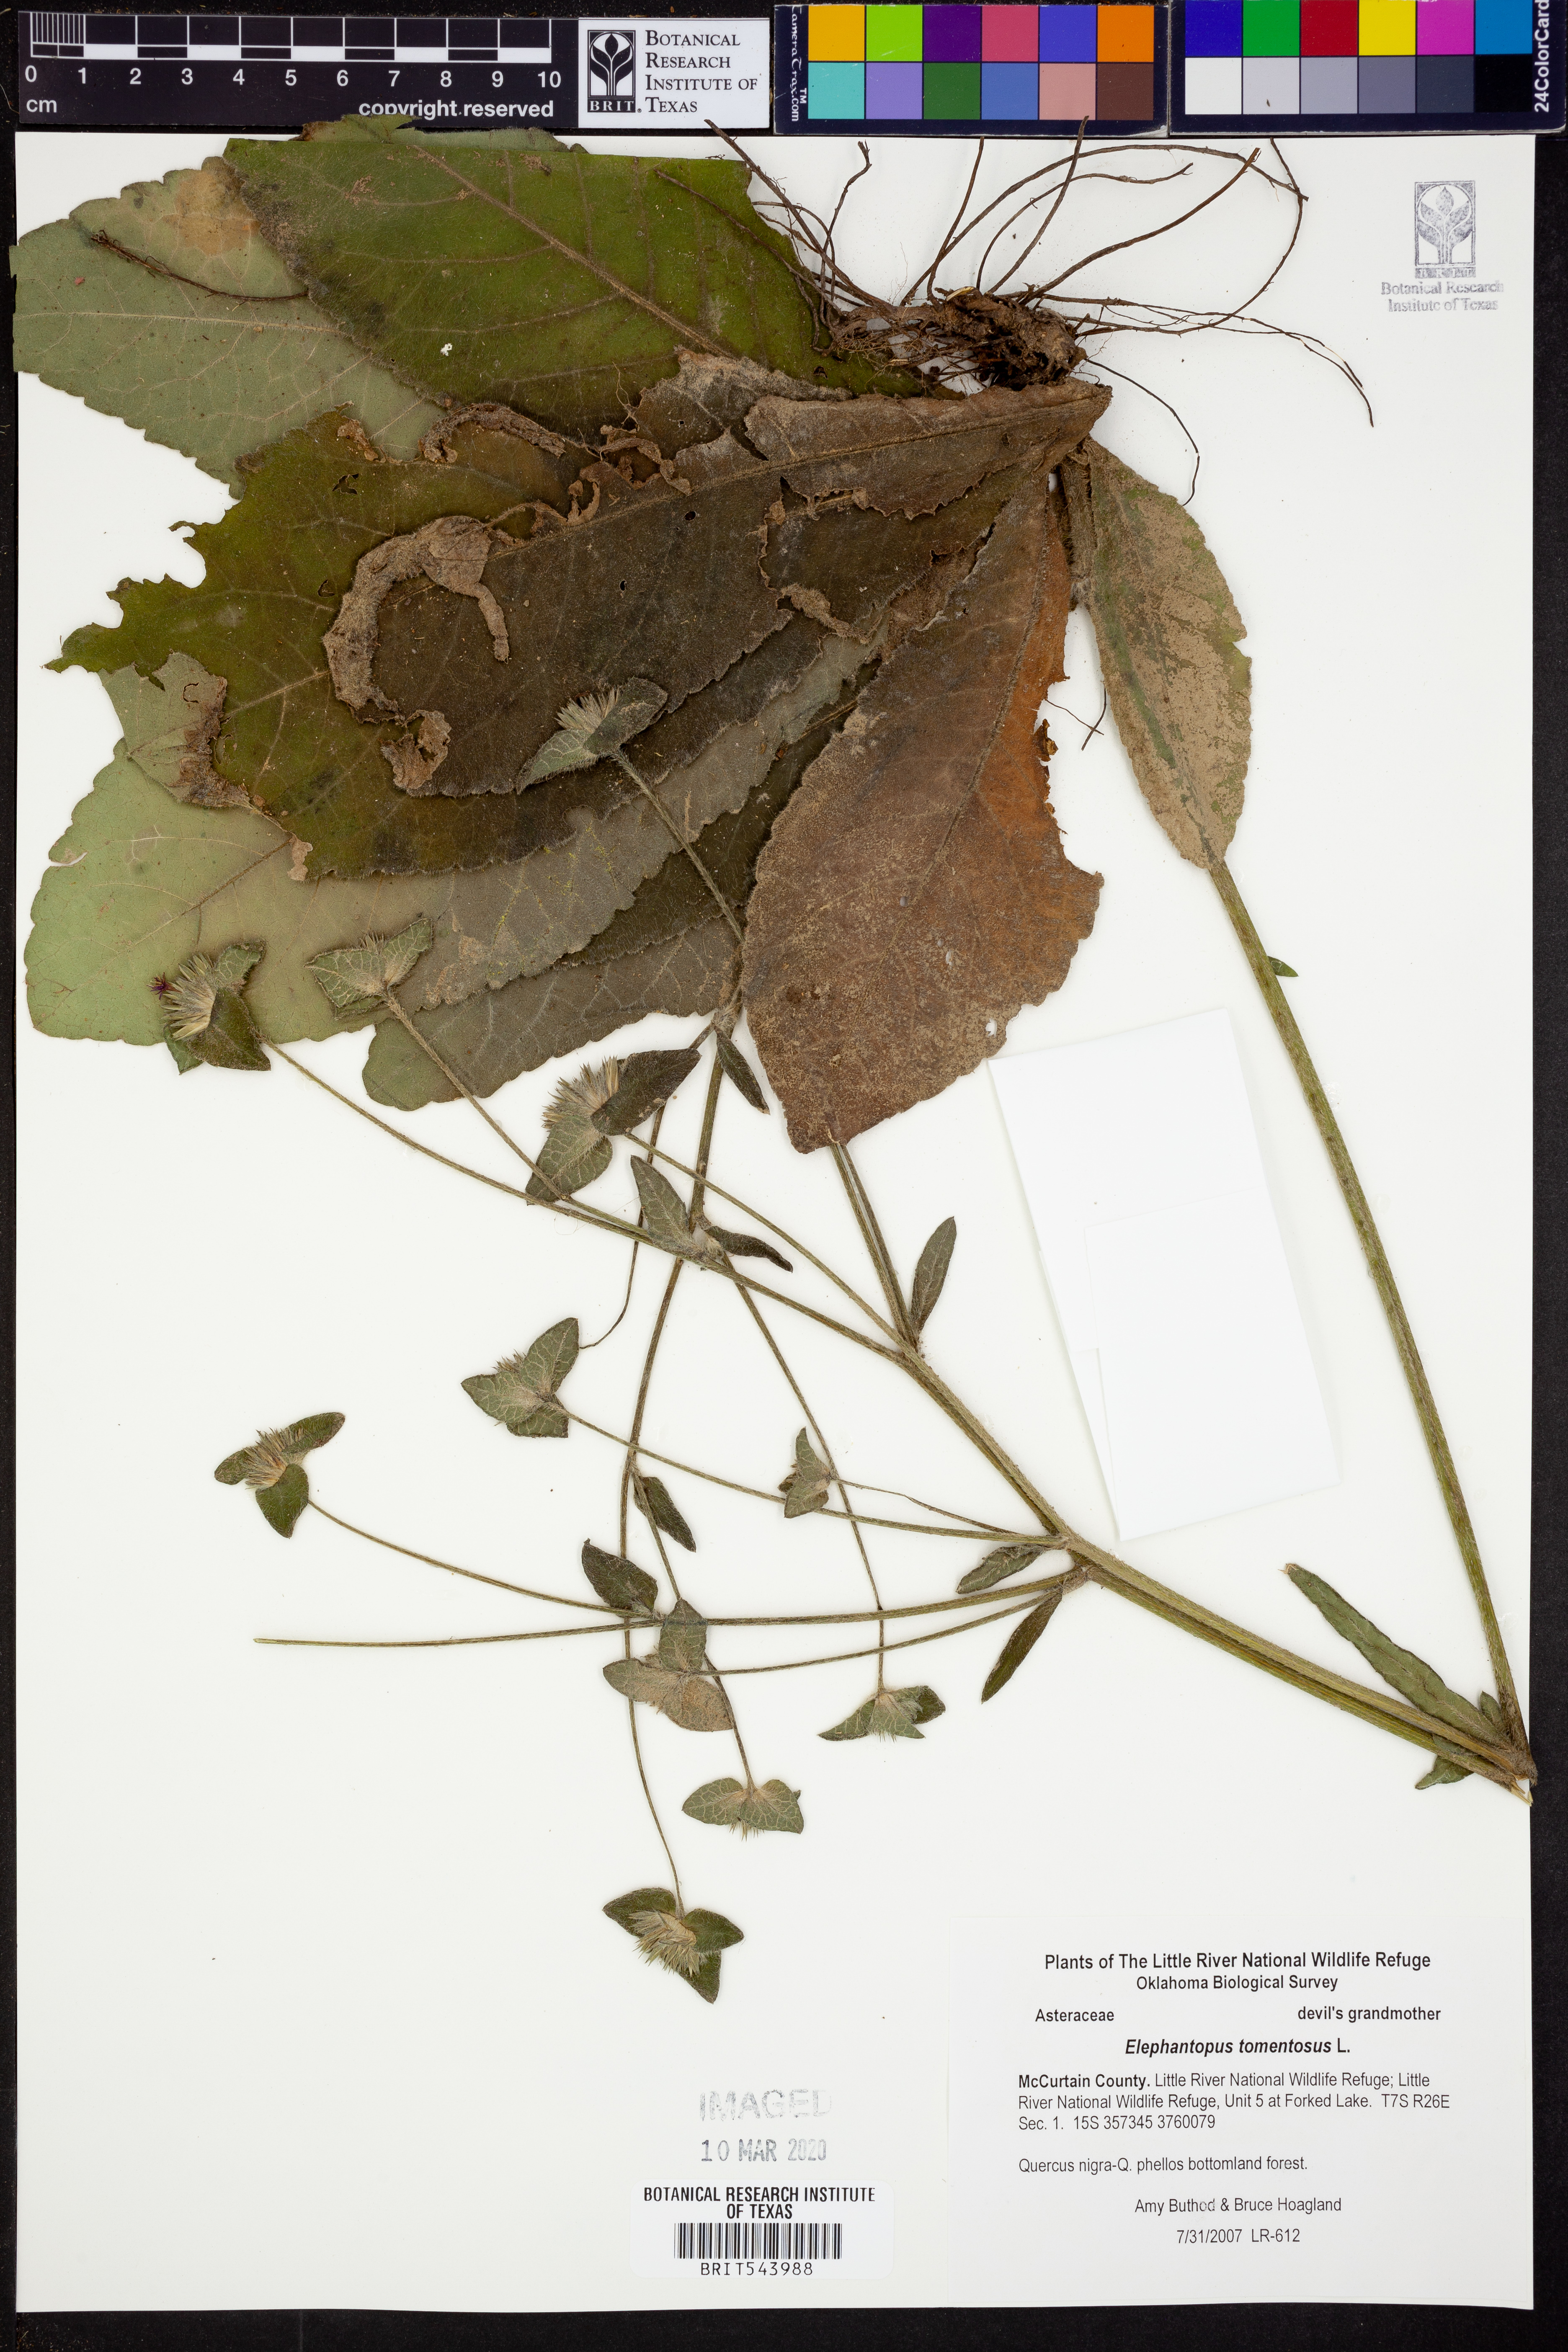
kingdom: Plantae
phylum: Tracheophyta
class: Magnoliopsida
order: Asterales
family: Asteraceae
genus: Elephantopus
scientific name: Elephantopus tomentosus
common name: Tobacco-weed
